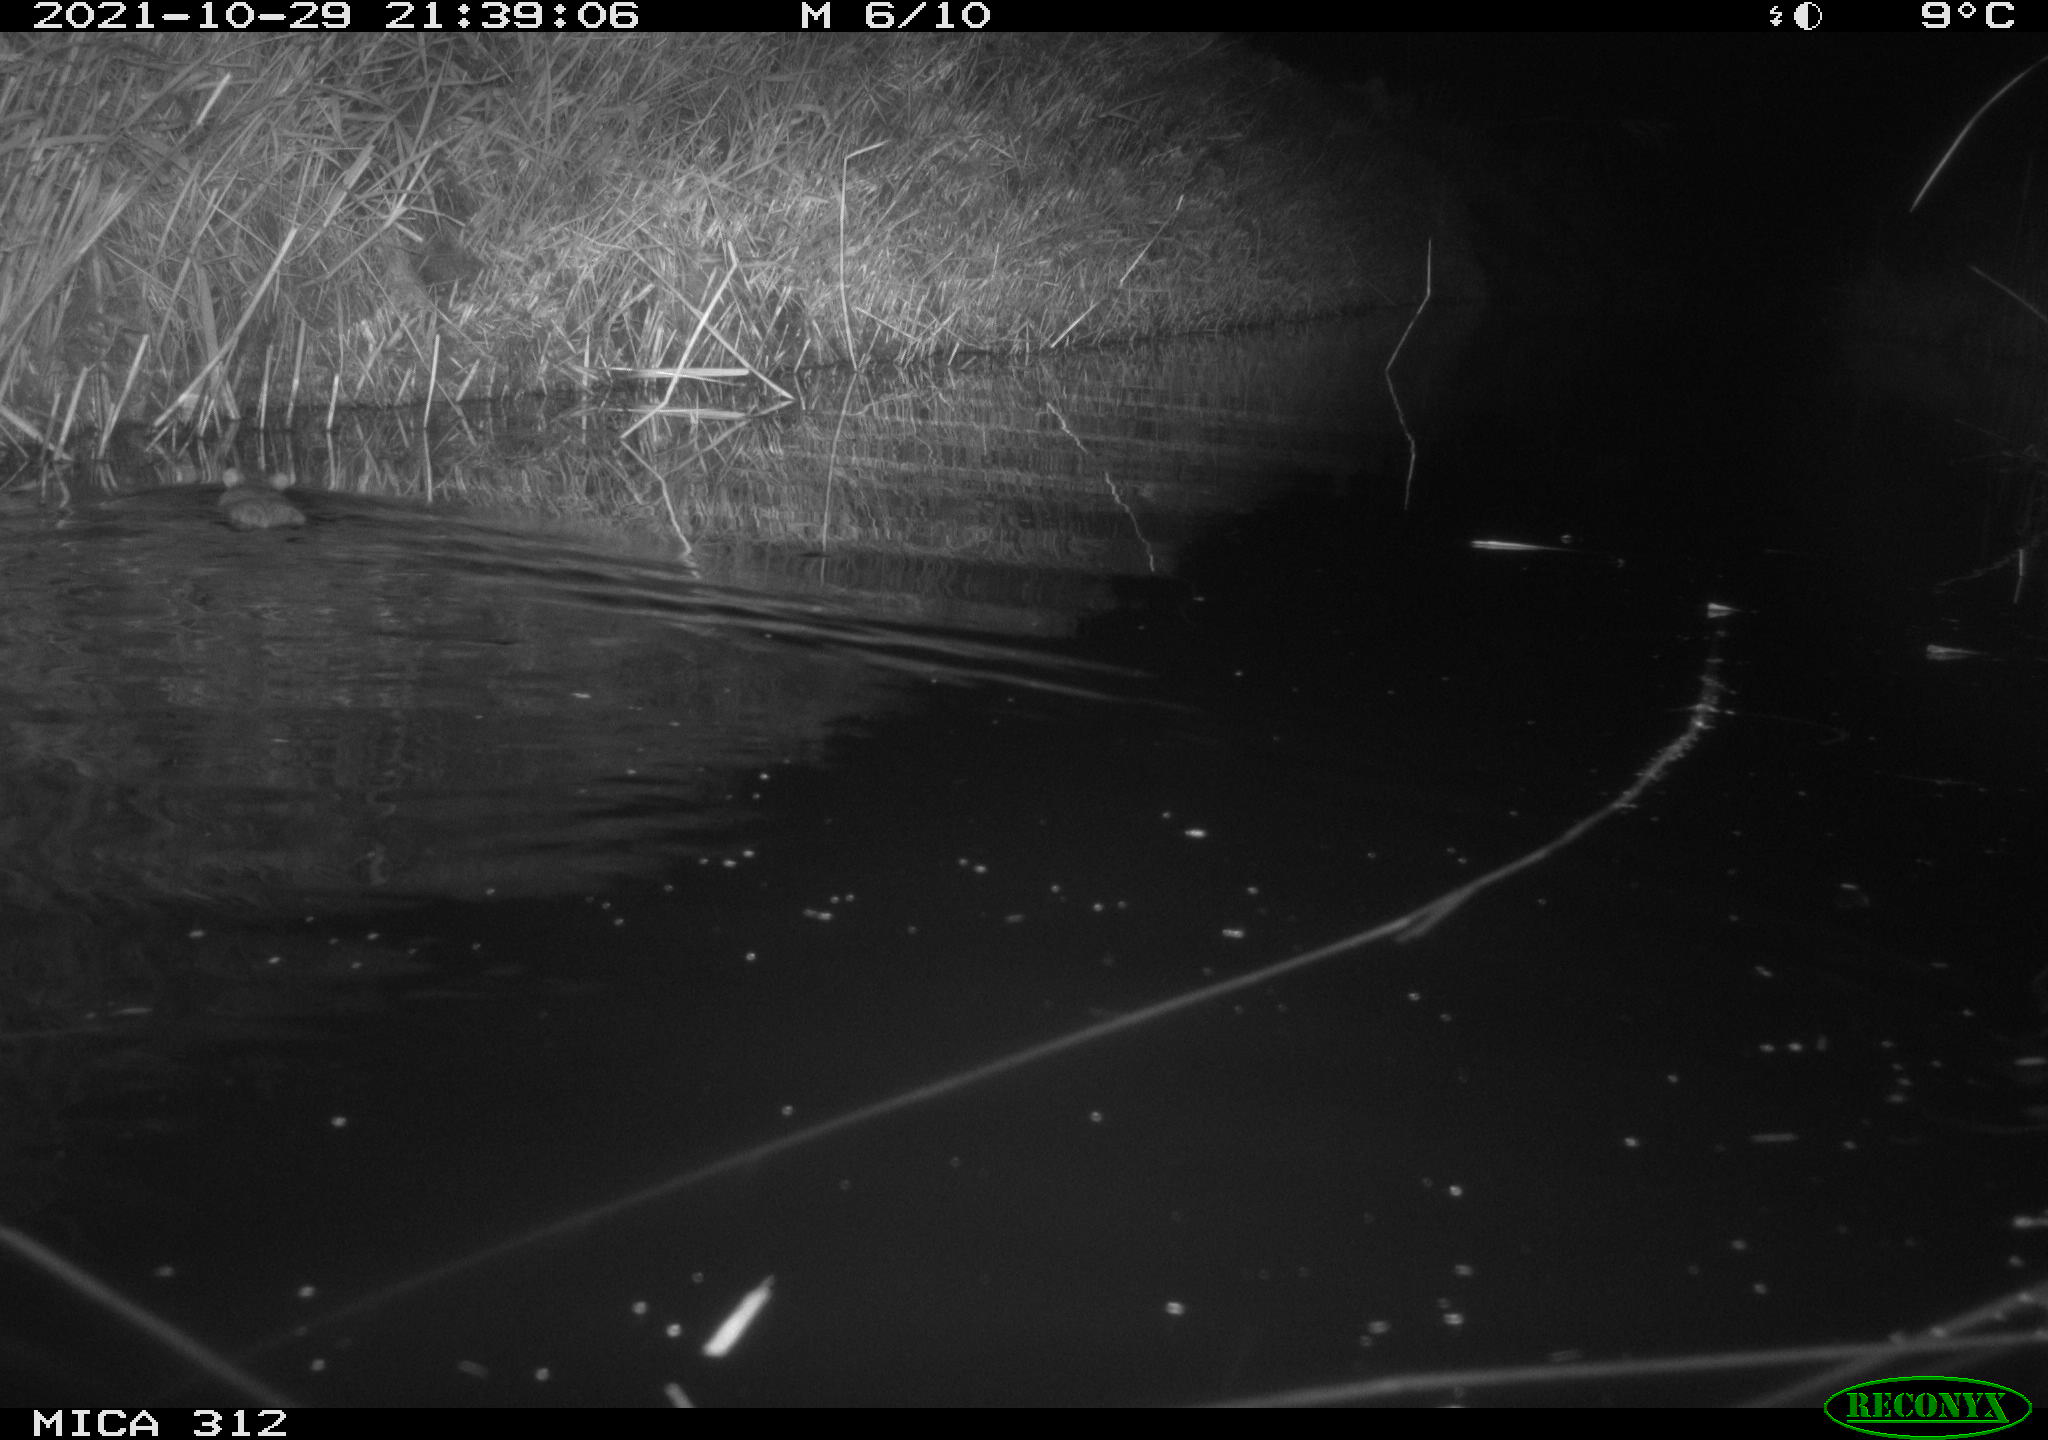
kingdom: Animalia
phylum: Chordata
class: Mammalia
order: Rodentia
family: Muridae
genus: Rattus
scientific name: Rattus norvegicus
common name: Brown rat
